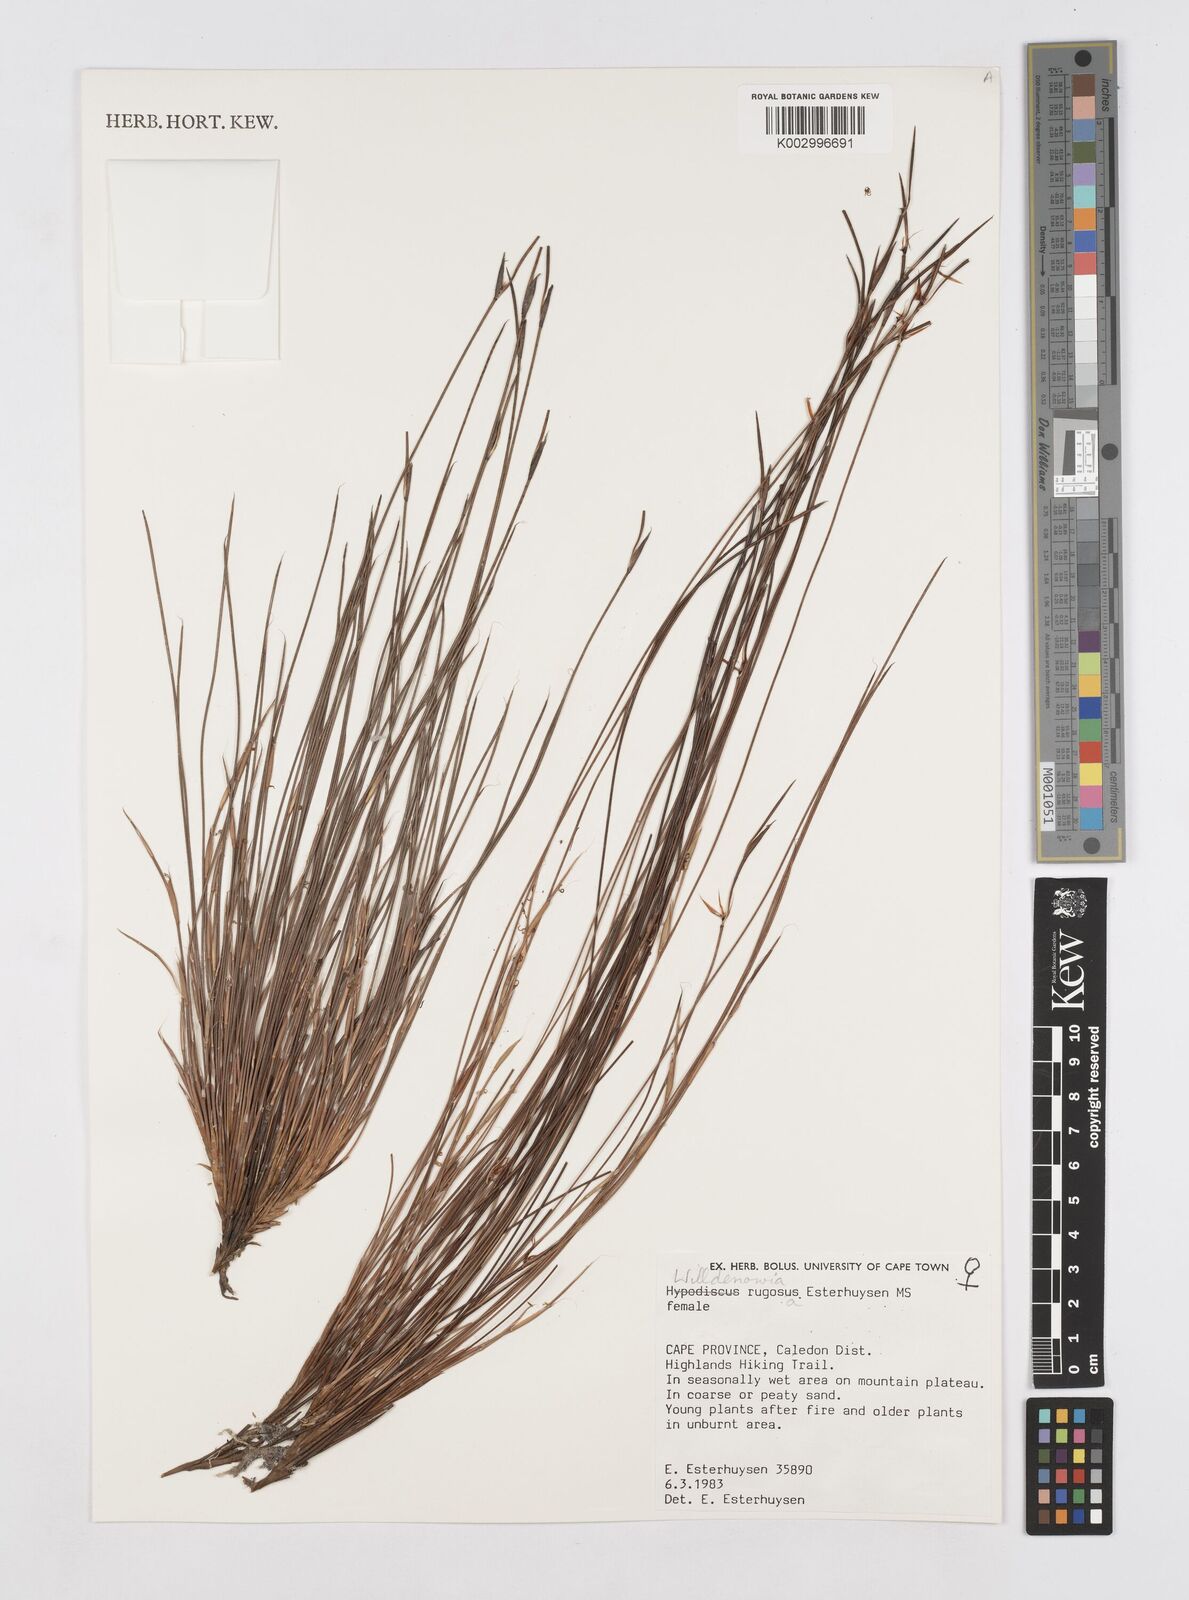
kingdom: Plantae
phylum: Tracheophyta
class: Liliopsida
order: Poales
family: Restionaceae
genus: Willdenowia
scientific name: Willdenowia glomerata
